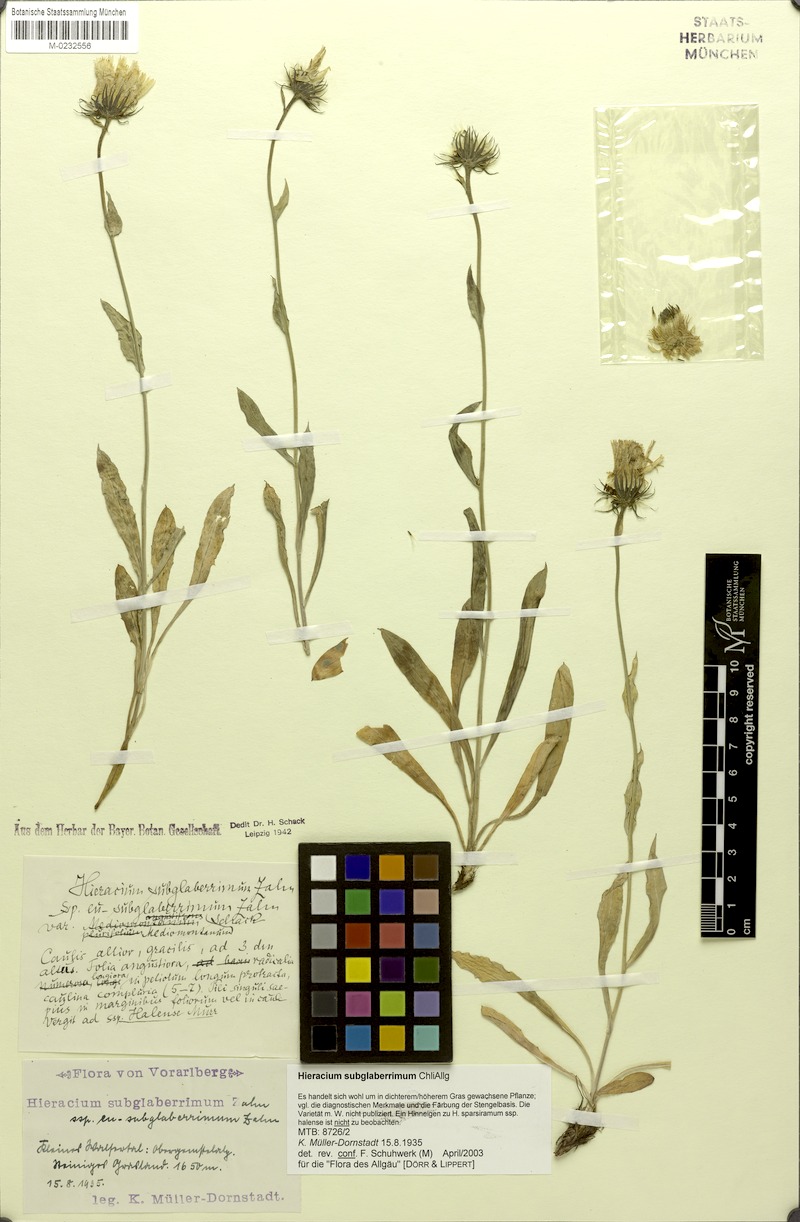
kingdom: Plantae
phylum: Tracheophyta
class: Magnoliopsida
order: Asterales
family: Asteraceae
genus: Hieracium
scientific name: Hieracium subglaberrimum
